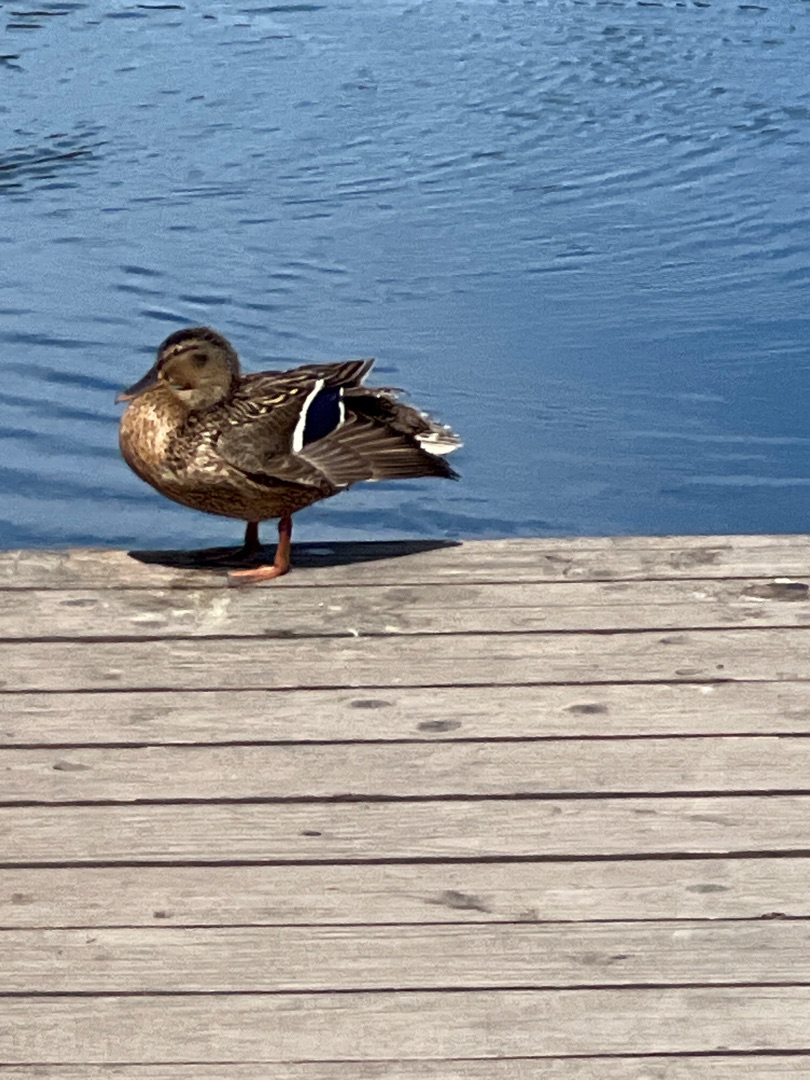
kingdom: Animalia
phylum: Chordata
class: Aves
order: Anseriformes
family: Anatidae
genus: Anas
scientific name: Anas platyrhynchos
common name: Gråand
